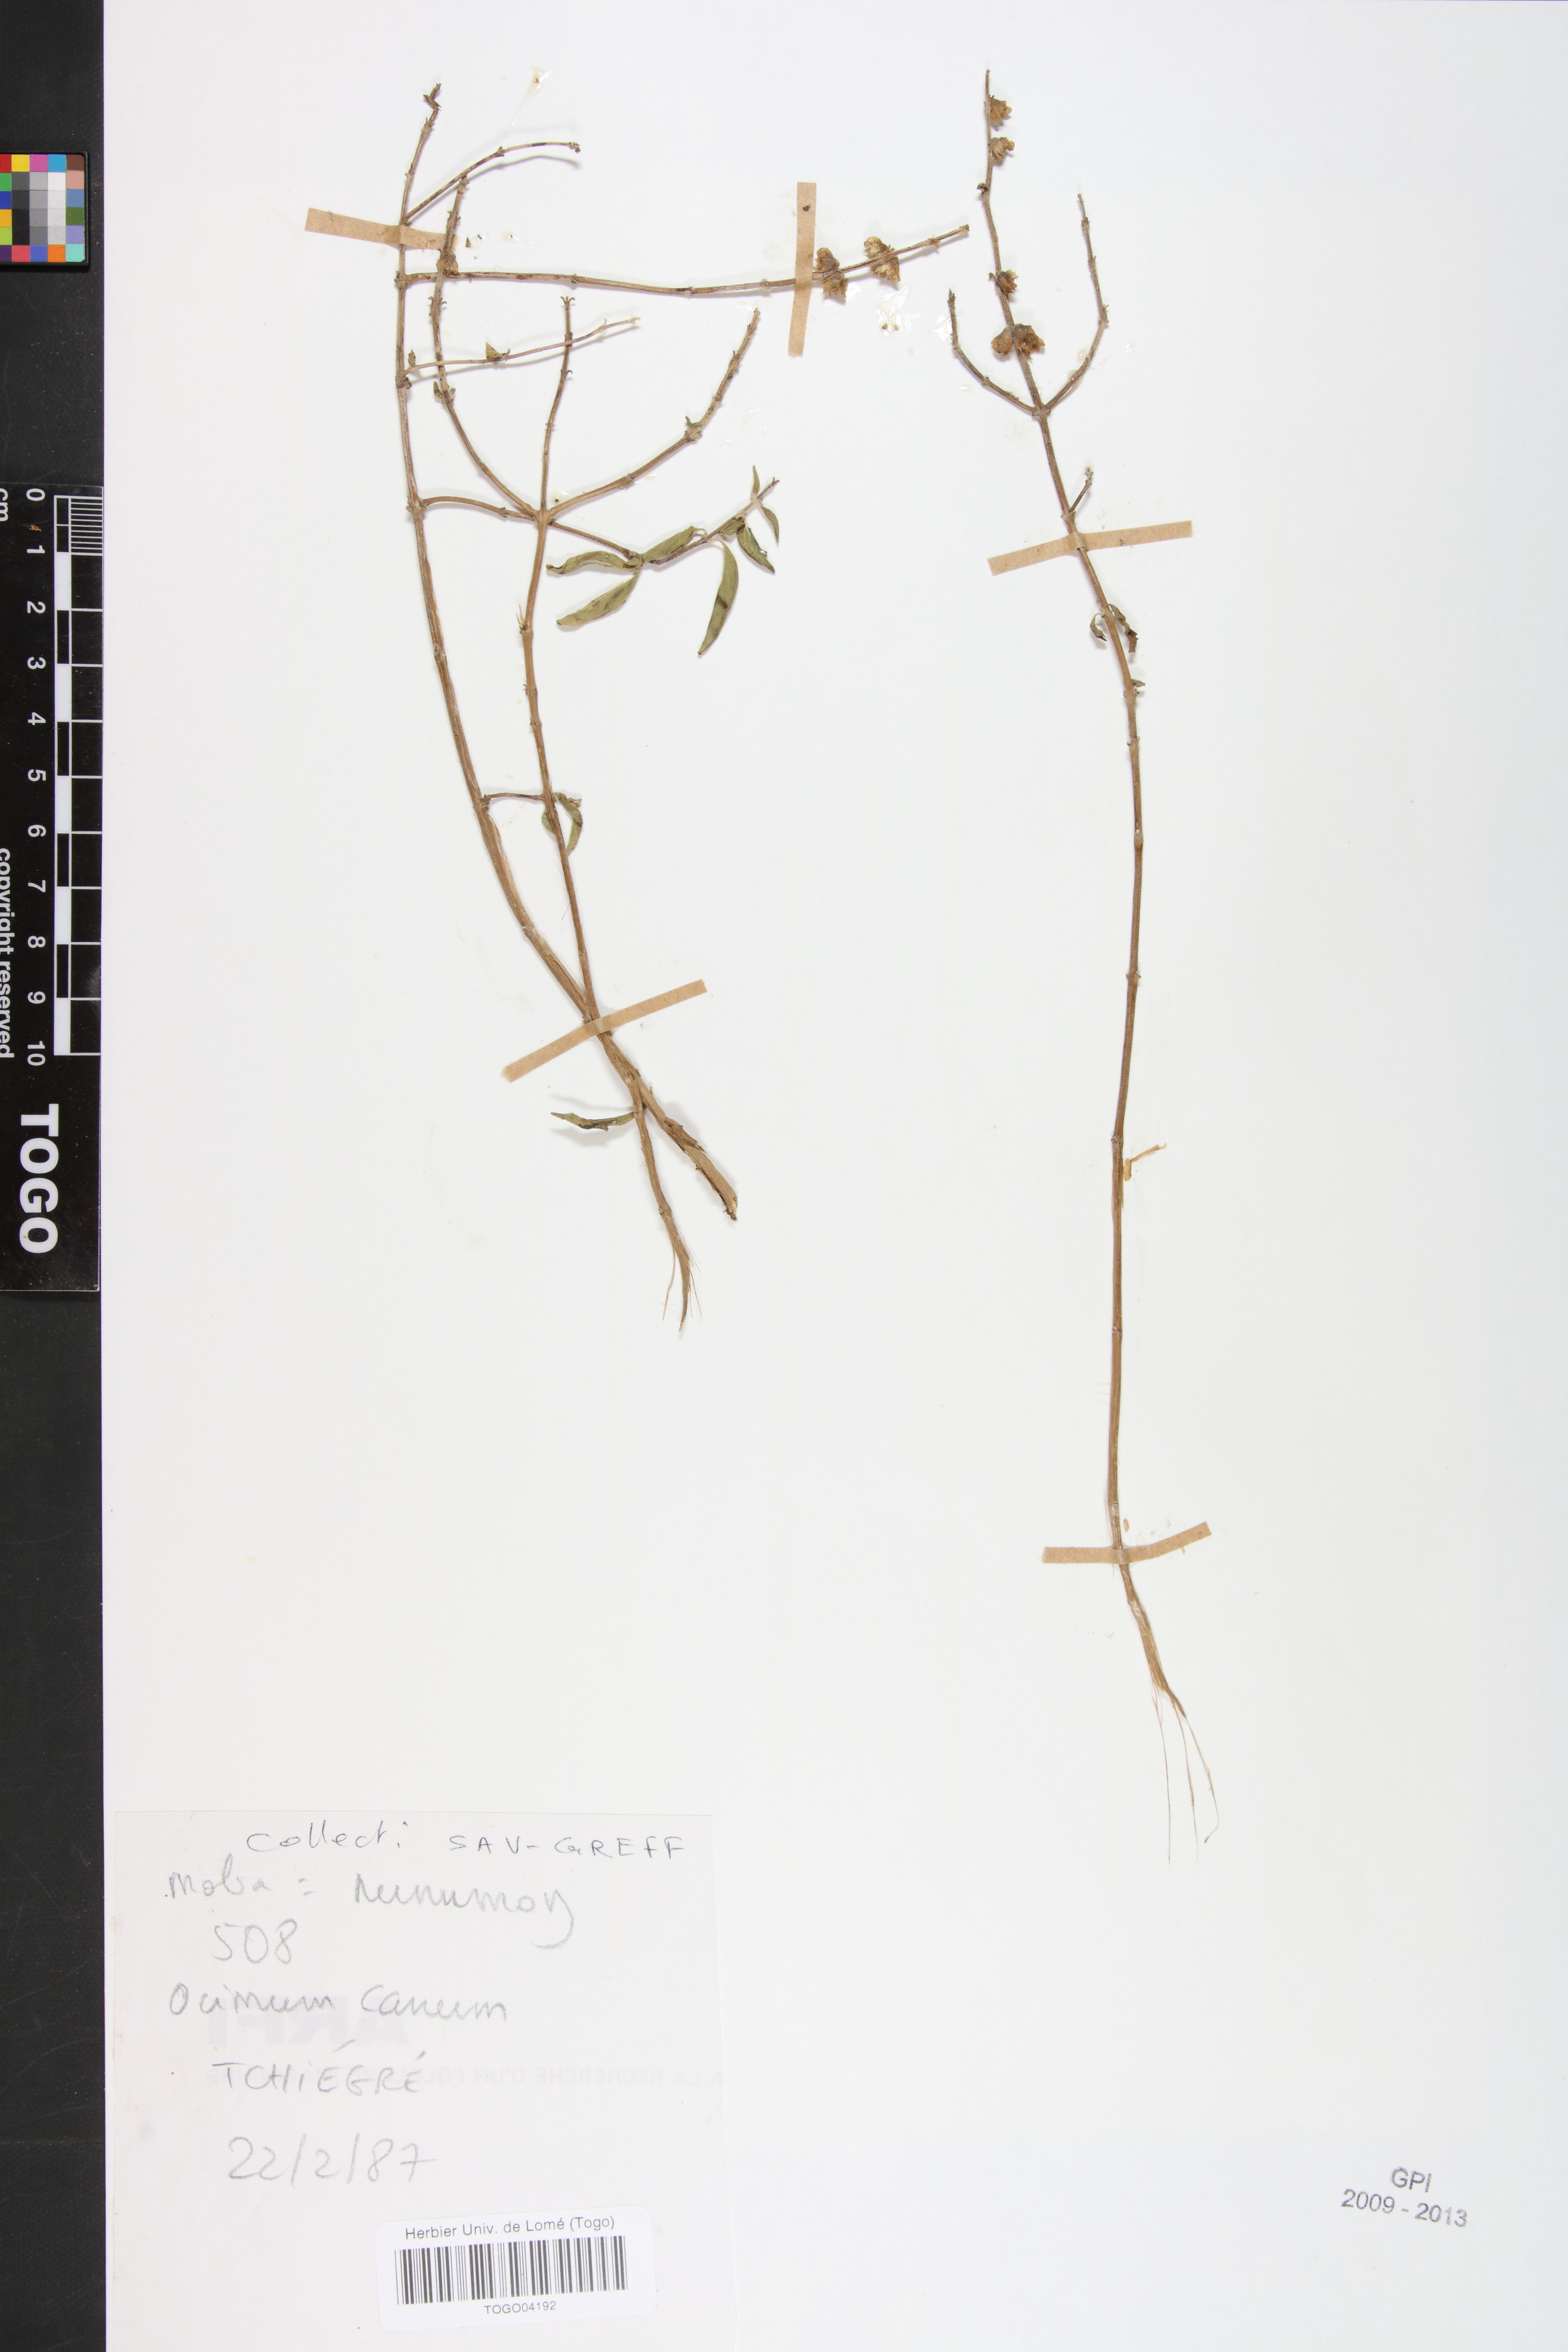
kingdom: Plantae
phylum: Tracheophyta
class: Magnoliopsida
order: Lamiales
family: Lamiaceae
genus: Ocimum
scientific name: Ocimum americanum
